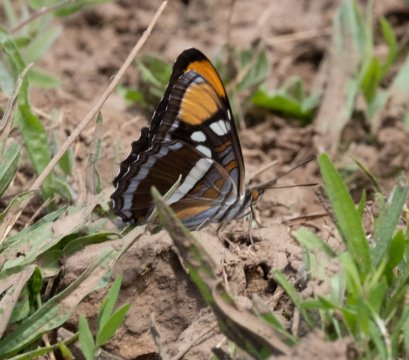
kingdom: Animalia
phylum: Arthropoda
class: Insecta
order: Lepidoptera
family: Nymphalidae
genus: Limenitis
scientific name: Limenitis bredowii
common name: California Sister
